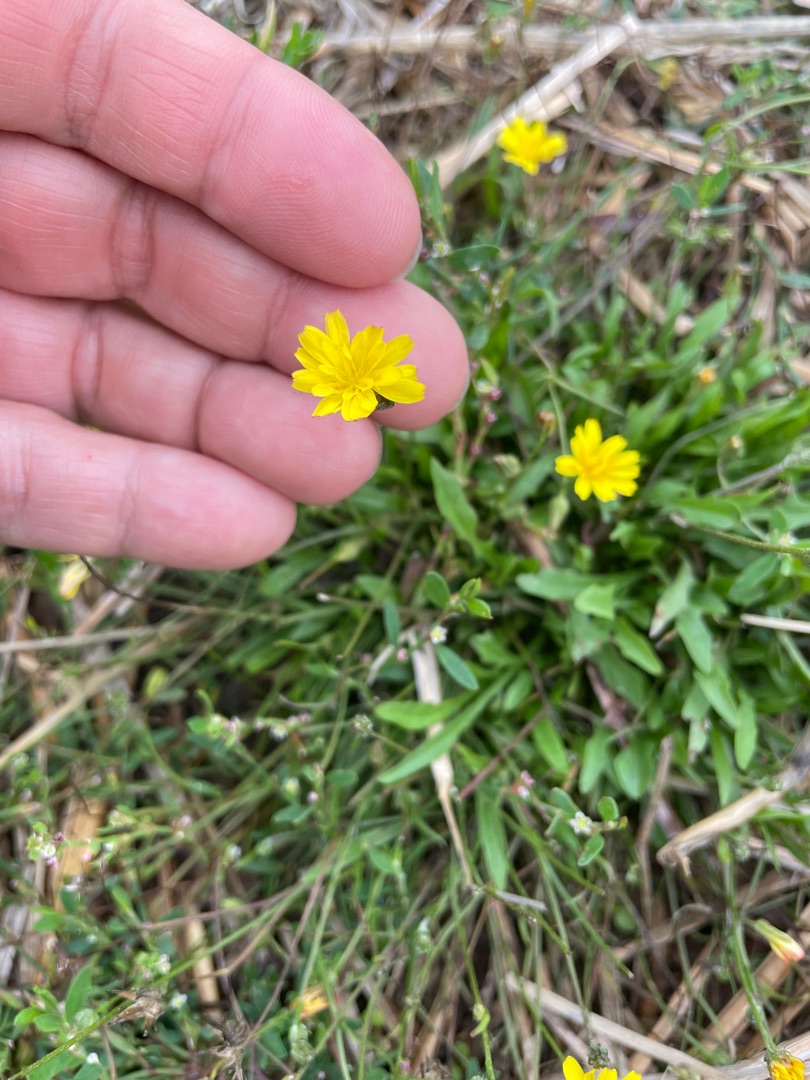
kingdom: Plantae
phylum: Tracheophyta
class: Magnoliopsida
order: Asterales
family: Asteraceae
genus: Crepis
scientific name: Crepis capillaris
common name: Grøn høgeskæg
